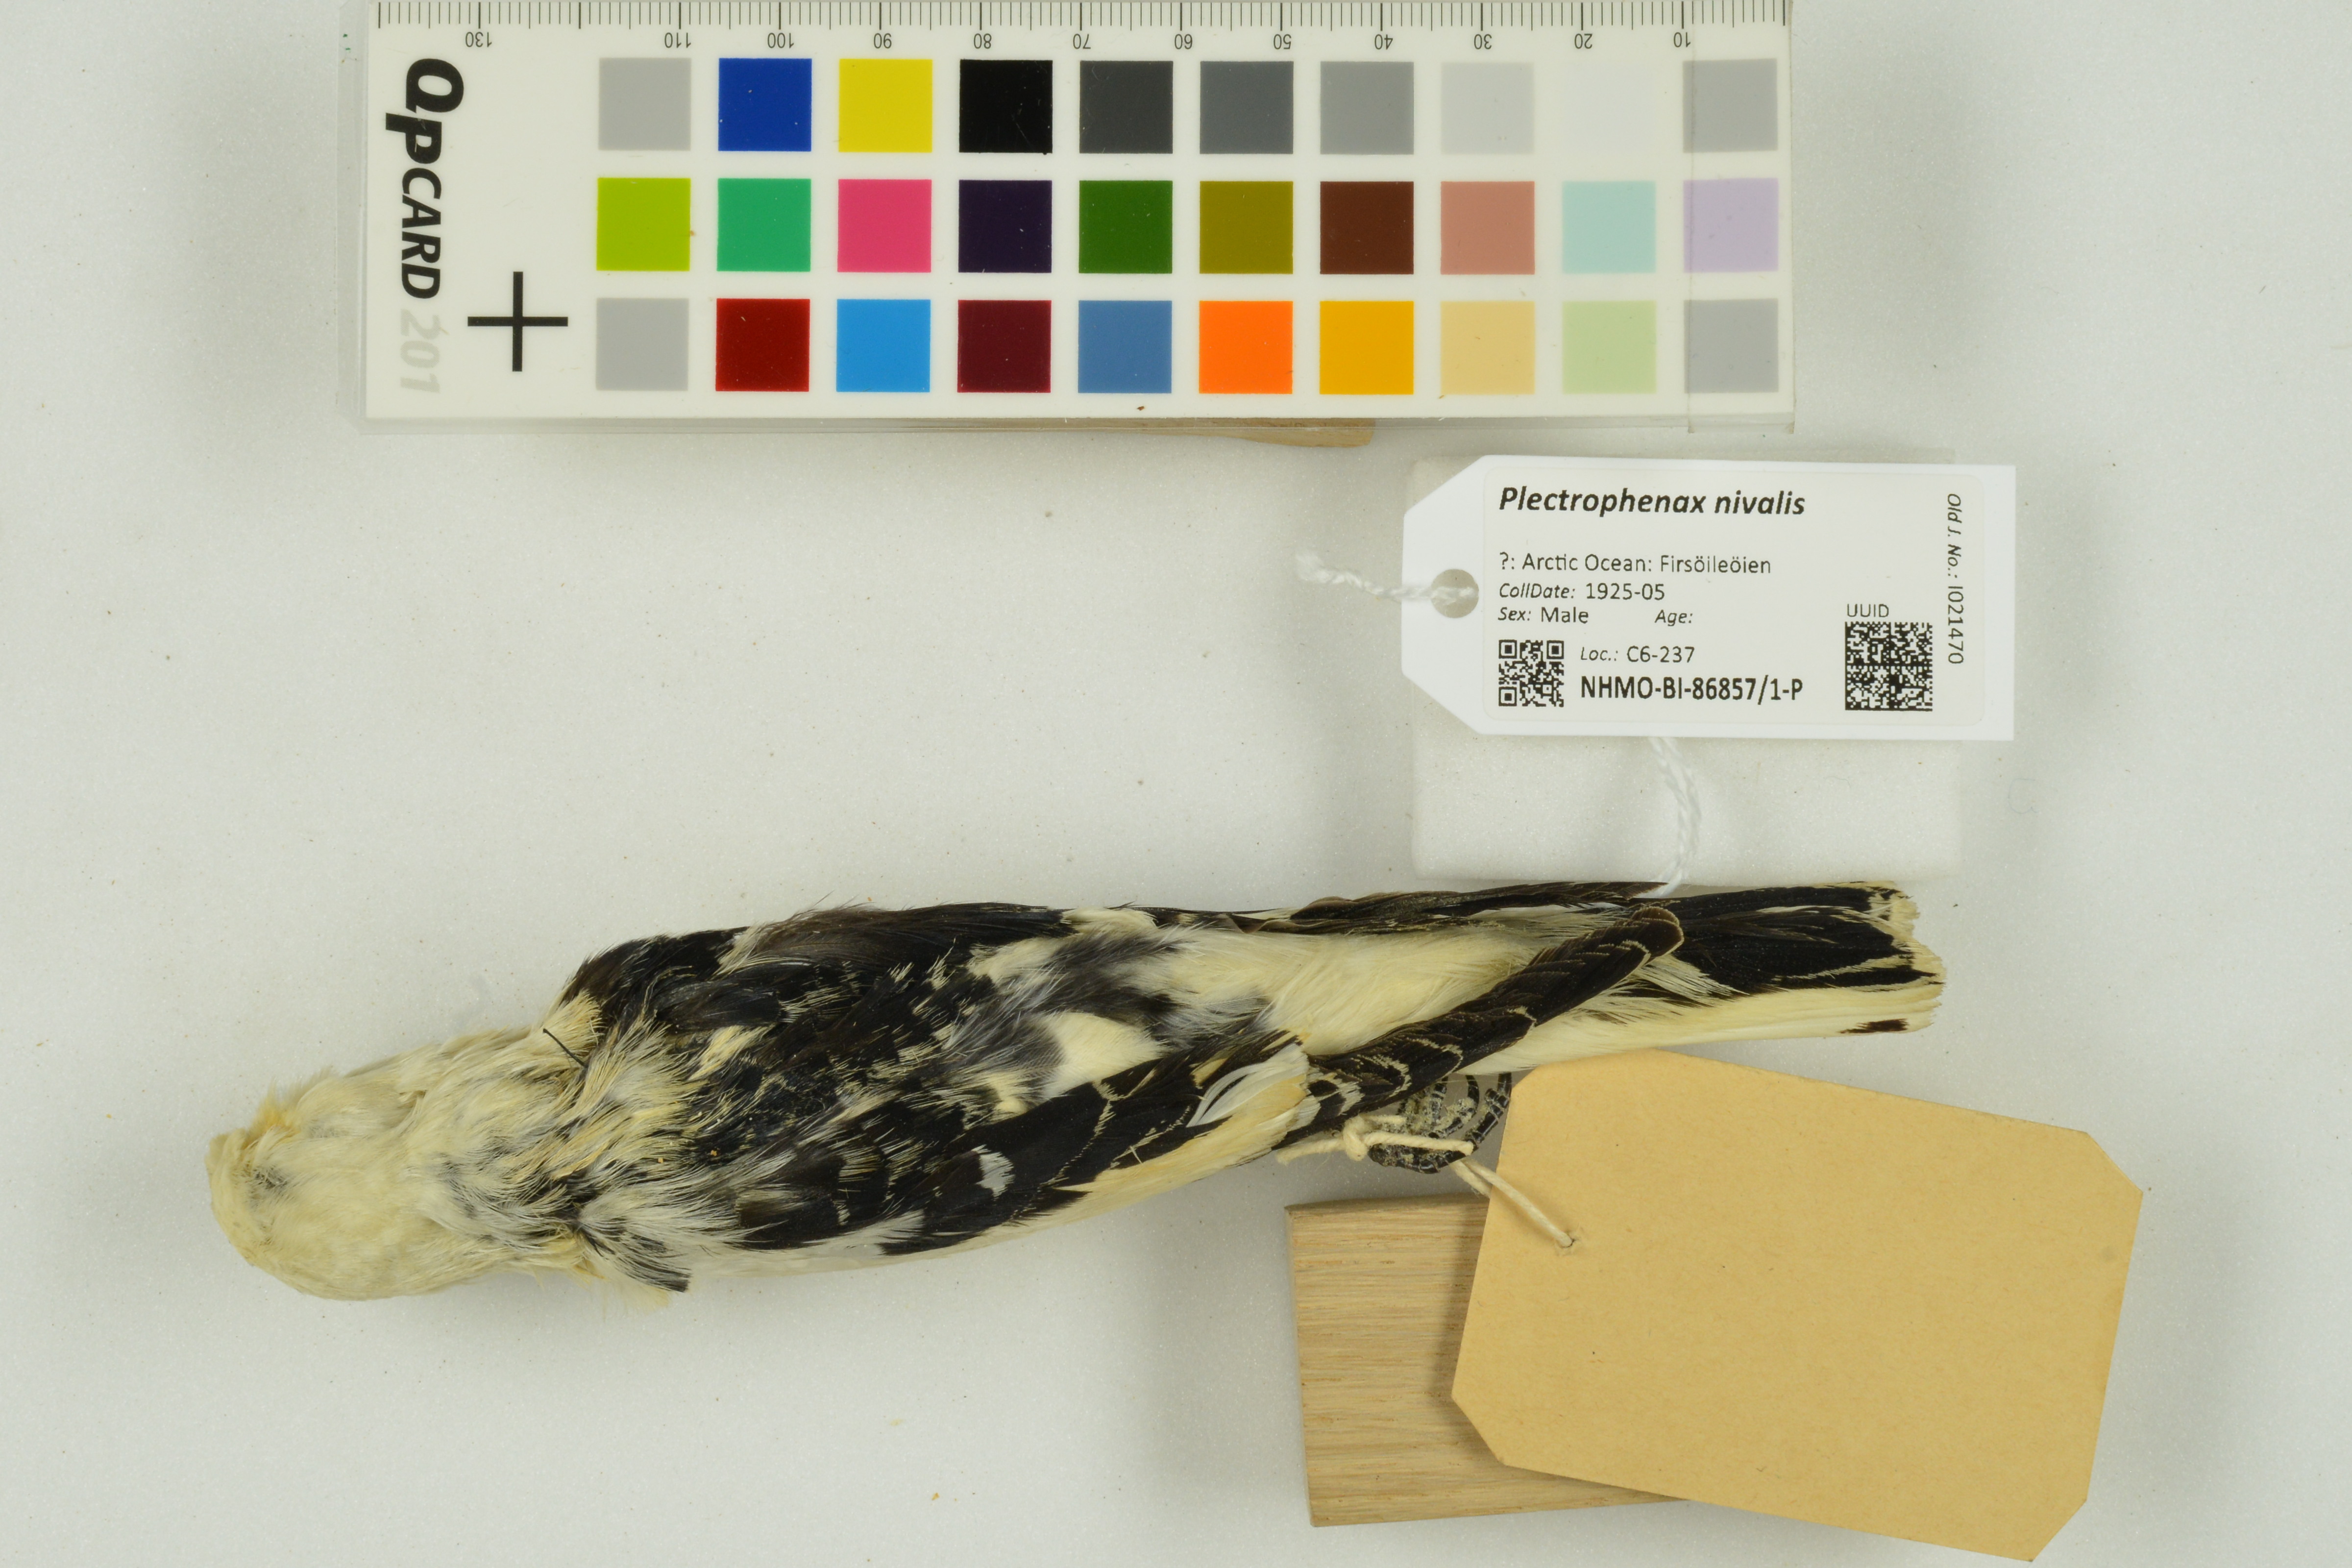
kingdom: Animalia
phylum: Chordata
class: Aves
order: Passeriformes
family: Calcariidae
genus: Plectrophenax
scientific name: Plectrophenax nivalis
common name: Snow bunting
